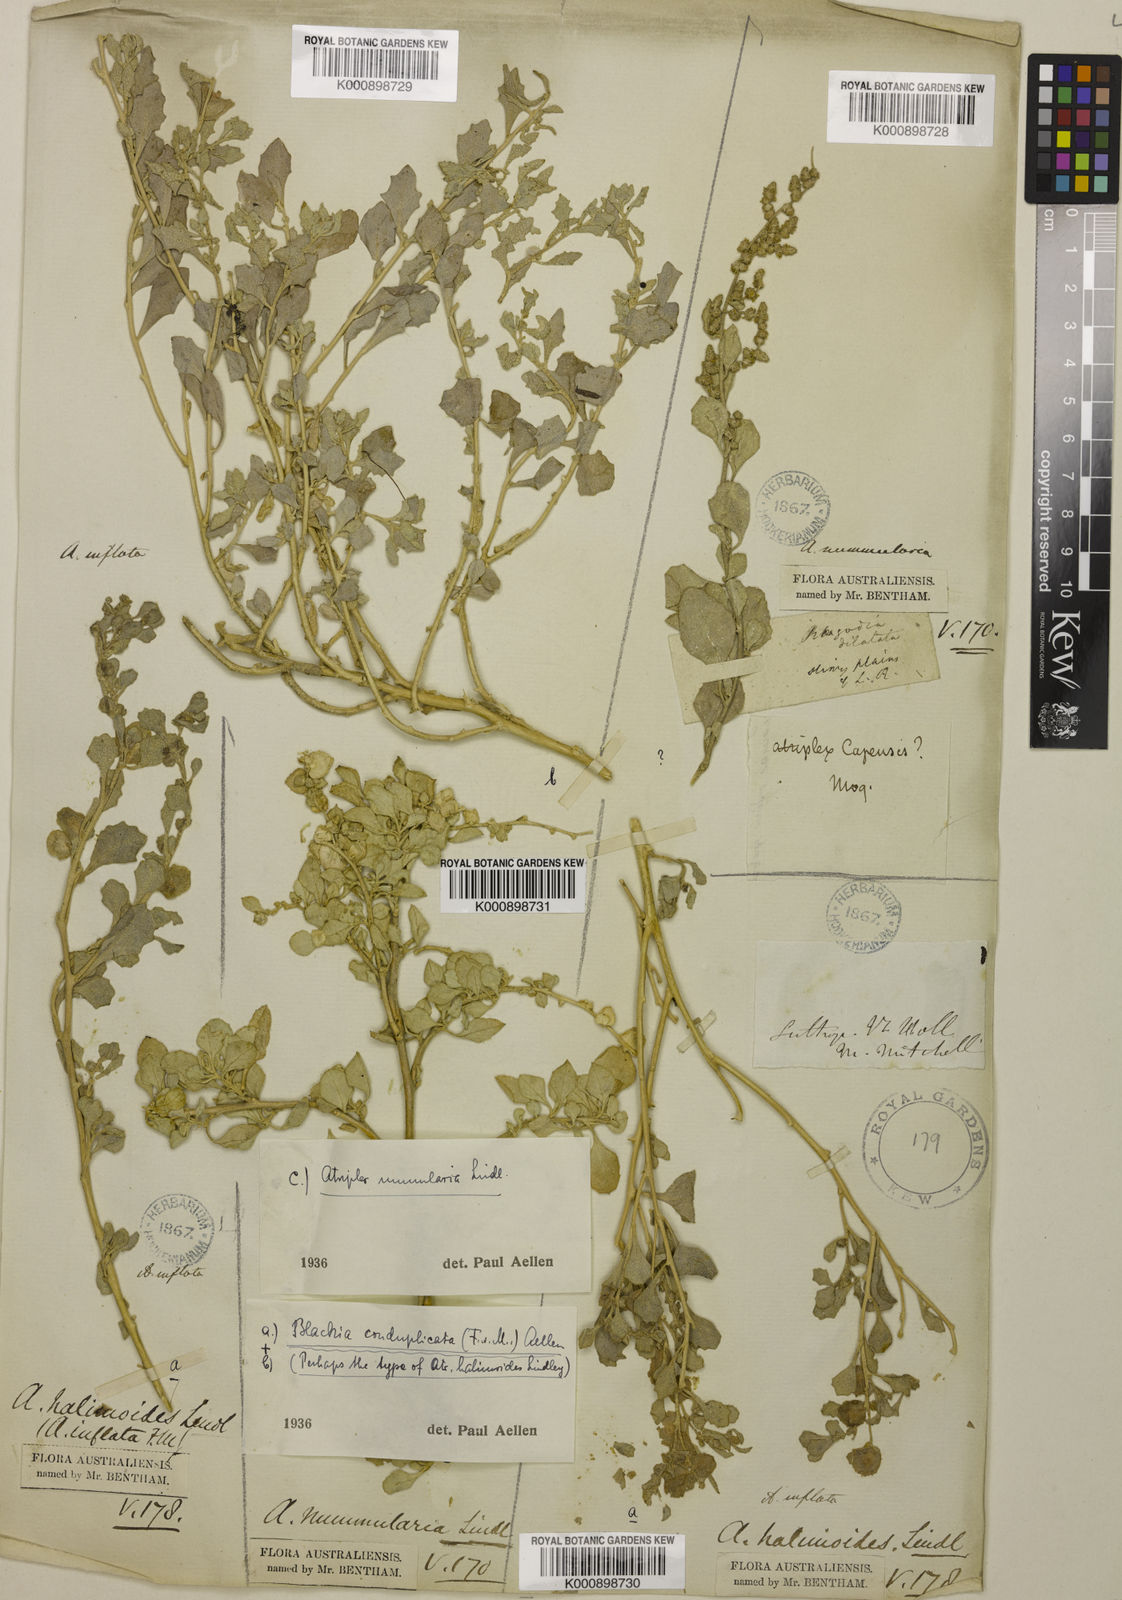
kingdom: Plantae
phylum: Tracheophyta
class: Magnoliopsida
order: Caryophyllales
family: Amaranthaceae
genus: Atriplex
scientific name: Atriplex lindleyi
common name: Lindley's saltbush
